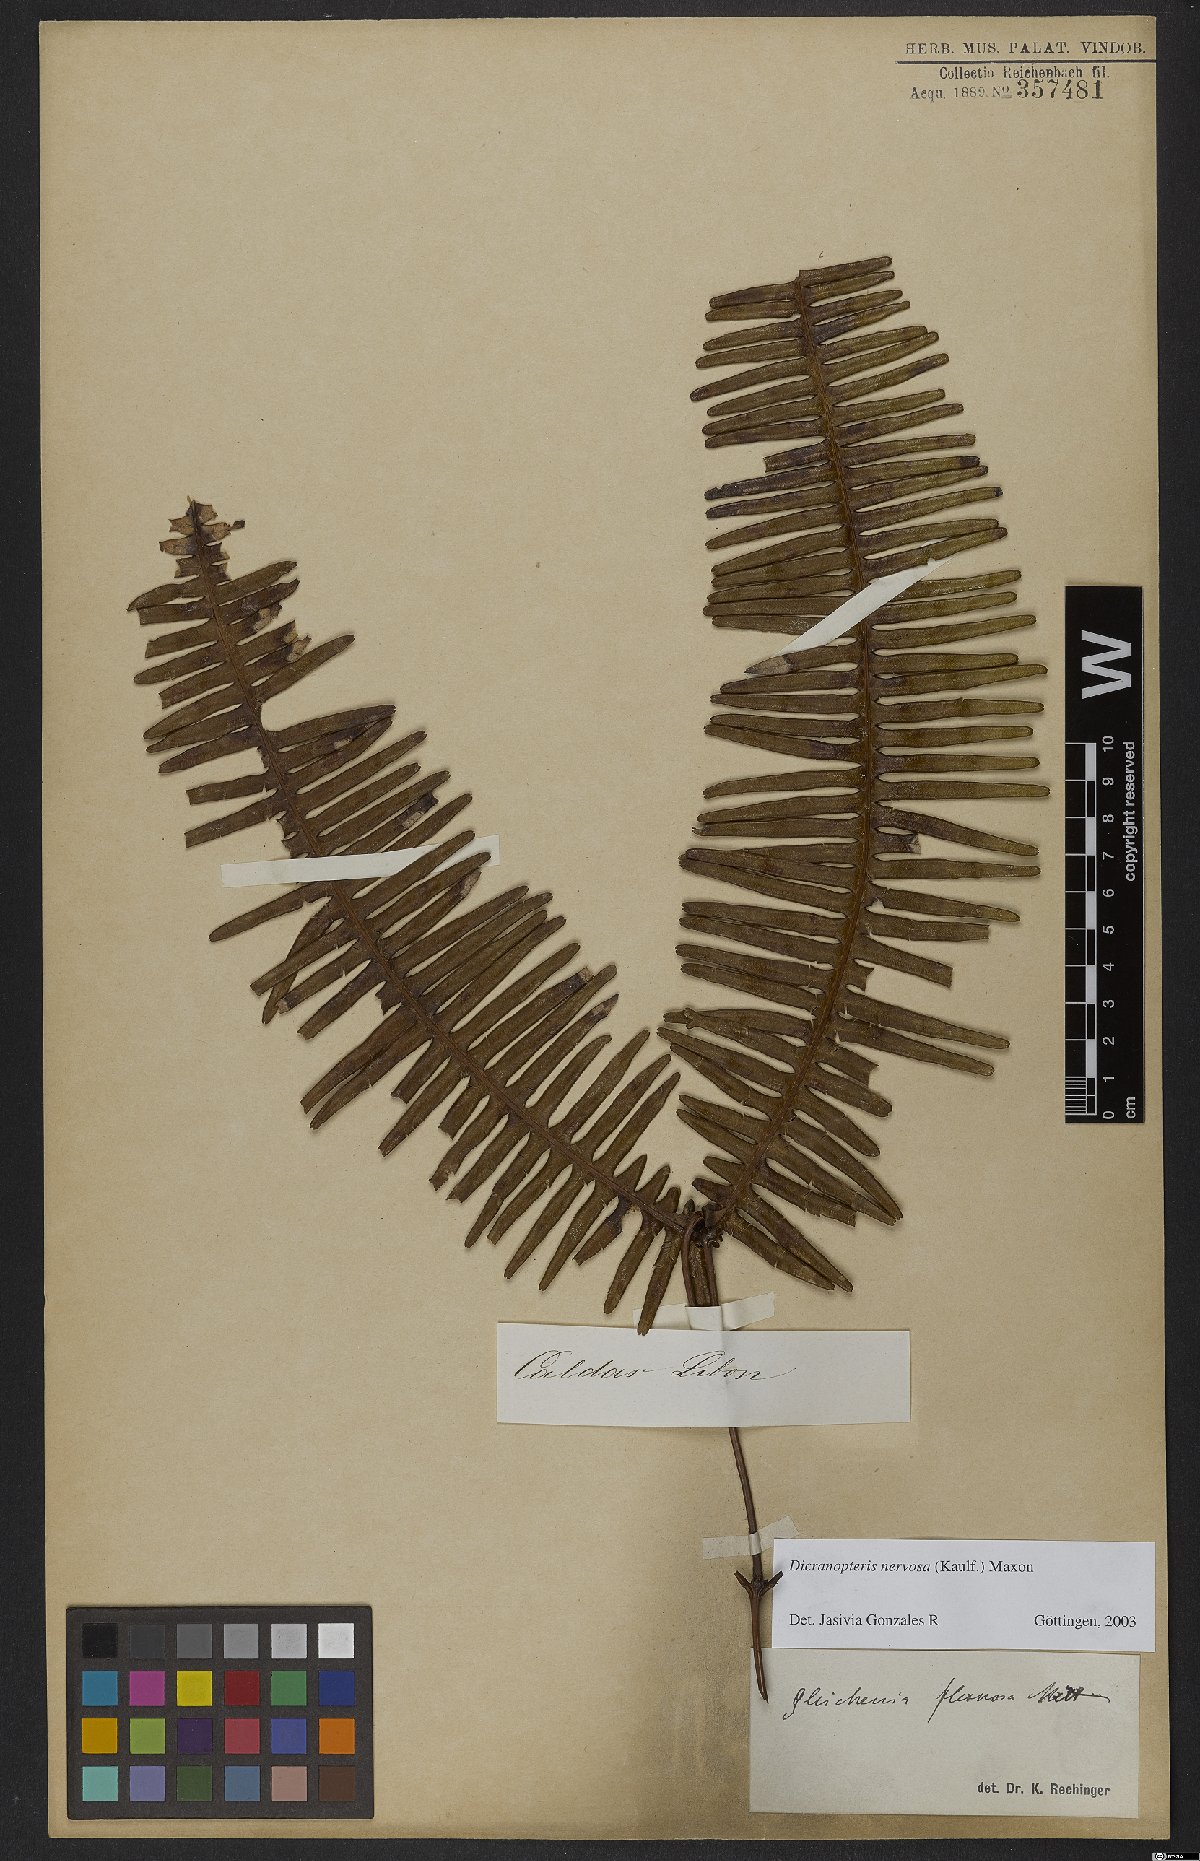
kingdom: Plantae
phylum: Tracheophyta
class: Polypodiopsida
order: Gleicheniales
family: Gleicheniaceae
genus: Dicranopteris
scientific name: Dicranopteris nervosa
